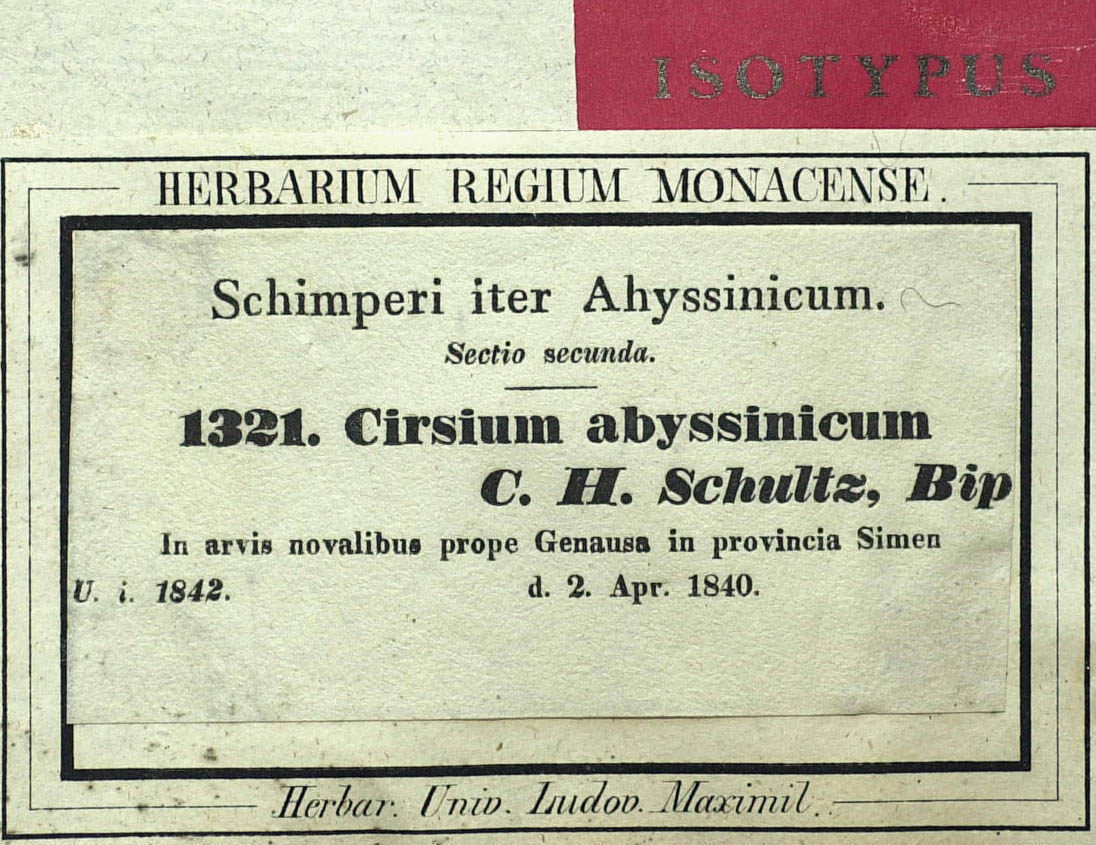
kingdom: Plantae
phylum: Tracheophyta
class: Magnoliopsida
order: Asterales
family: Asteraceae
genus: Cirsium
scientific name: Cirsium vulgare
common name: Bull thistle
